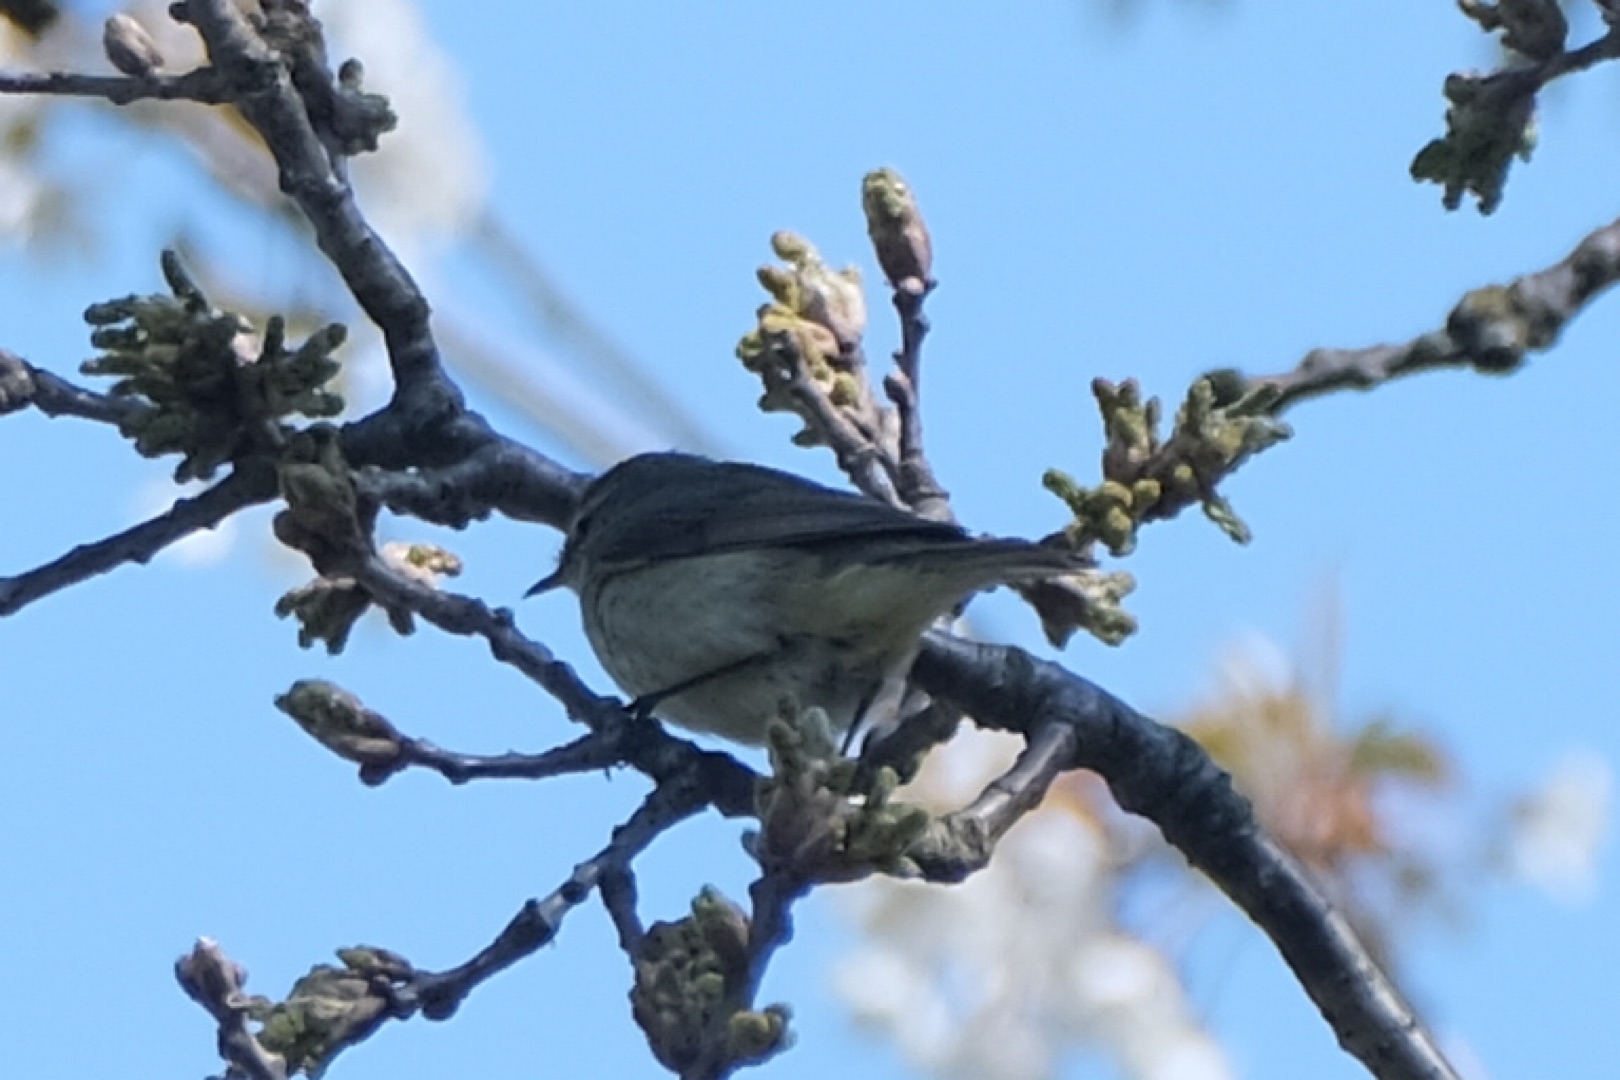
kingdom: Animalia
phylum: Chordata
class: Aves
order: Passeriformes
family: Phylloscopidae
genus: Phylloscopus
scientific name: Phylloscopus collybita
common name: Gransanger
